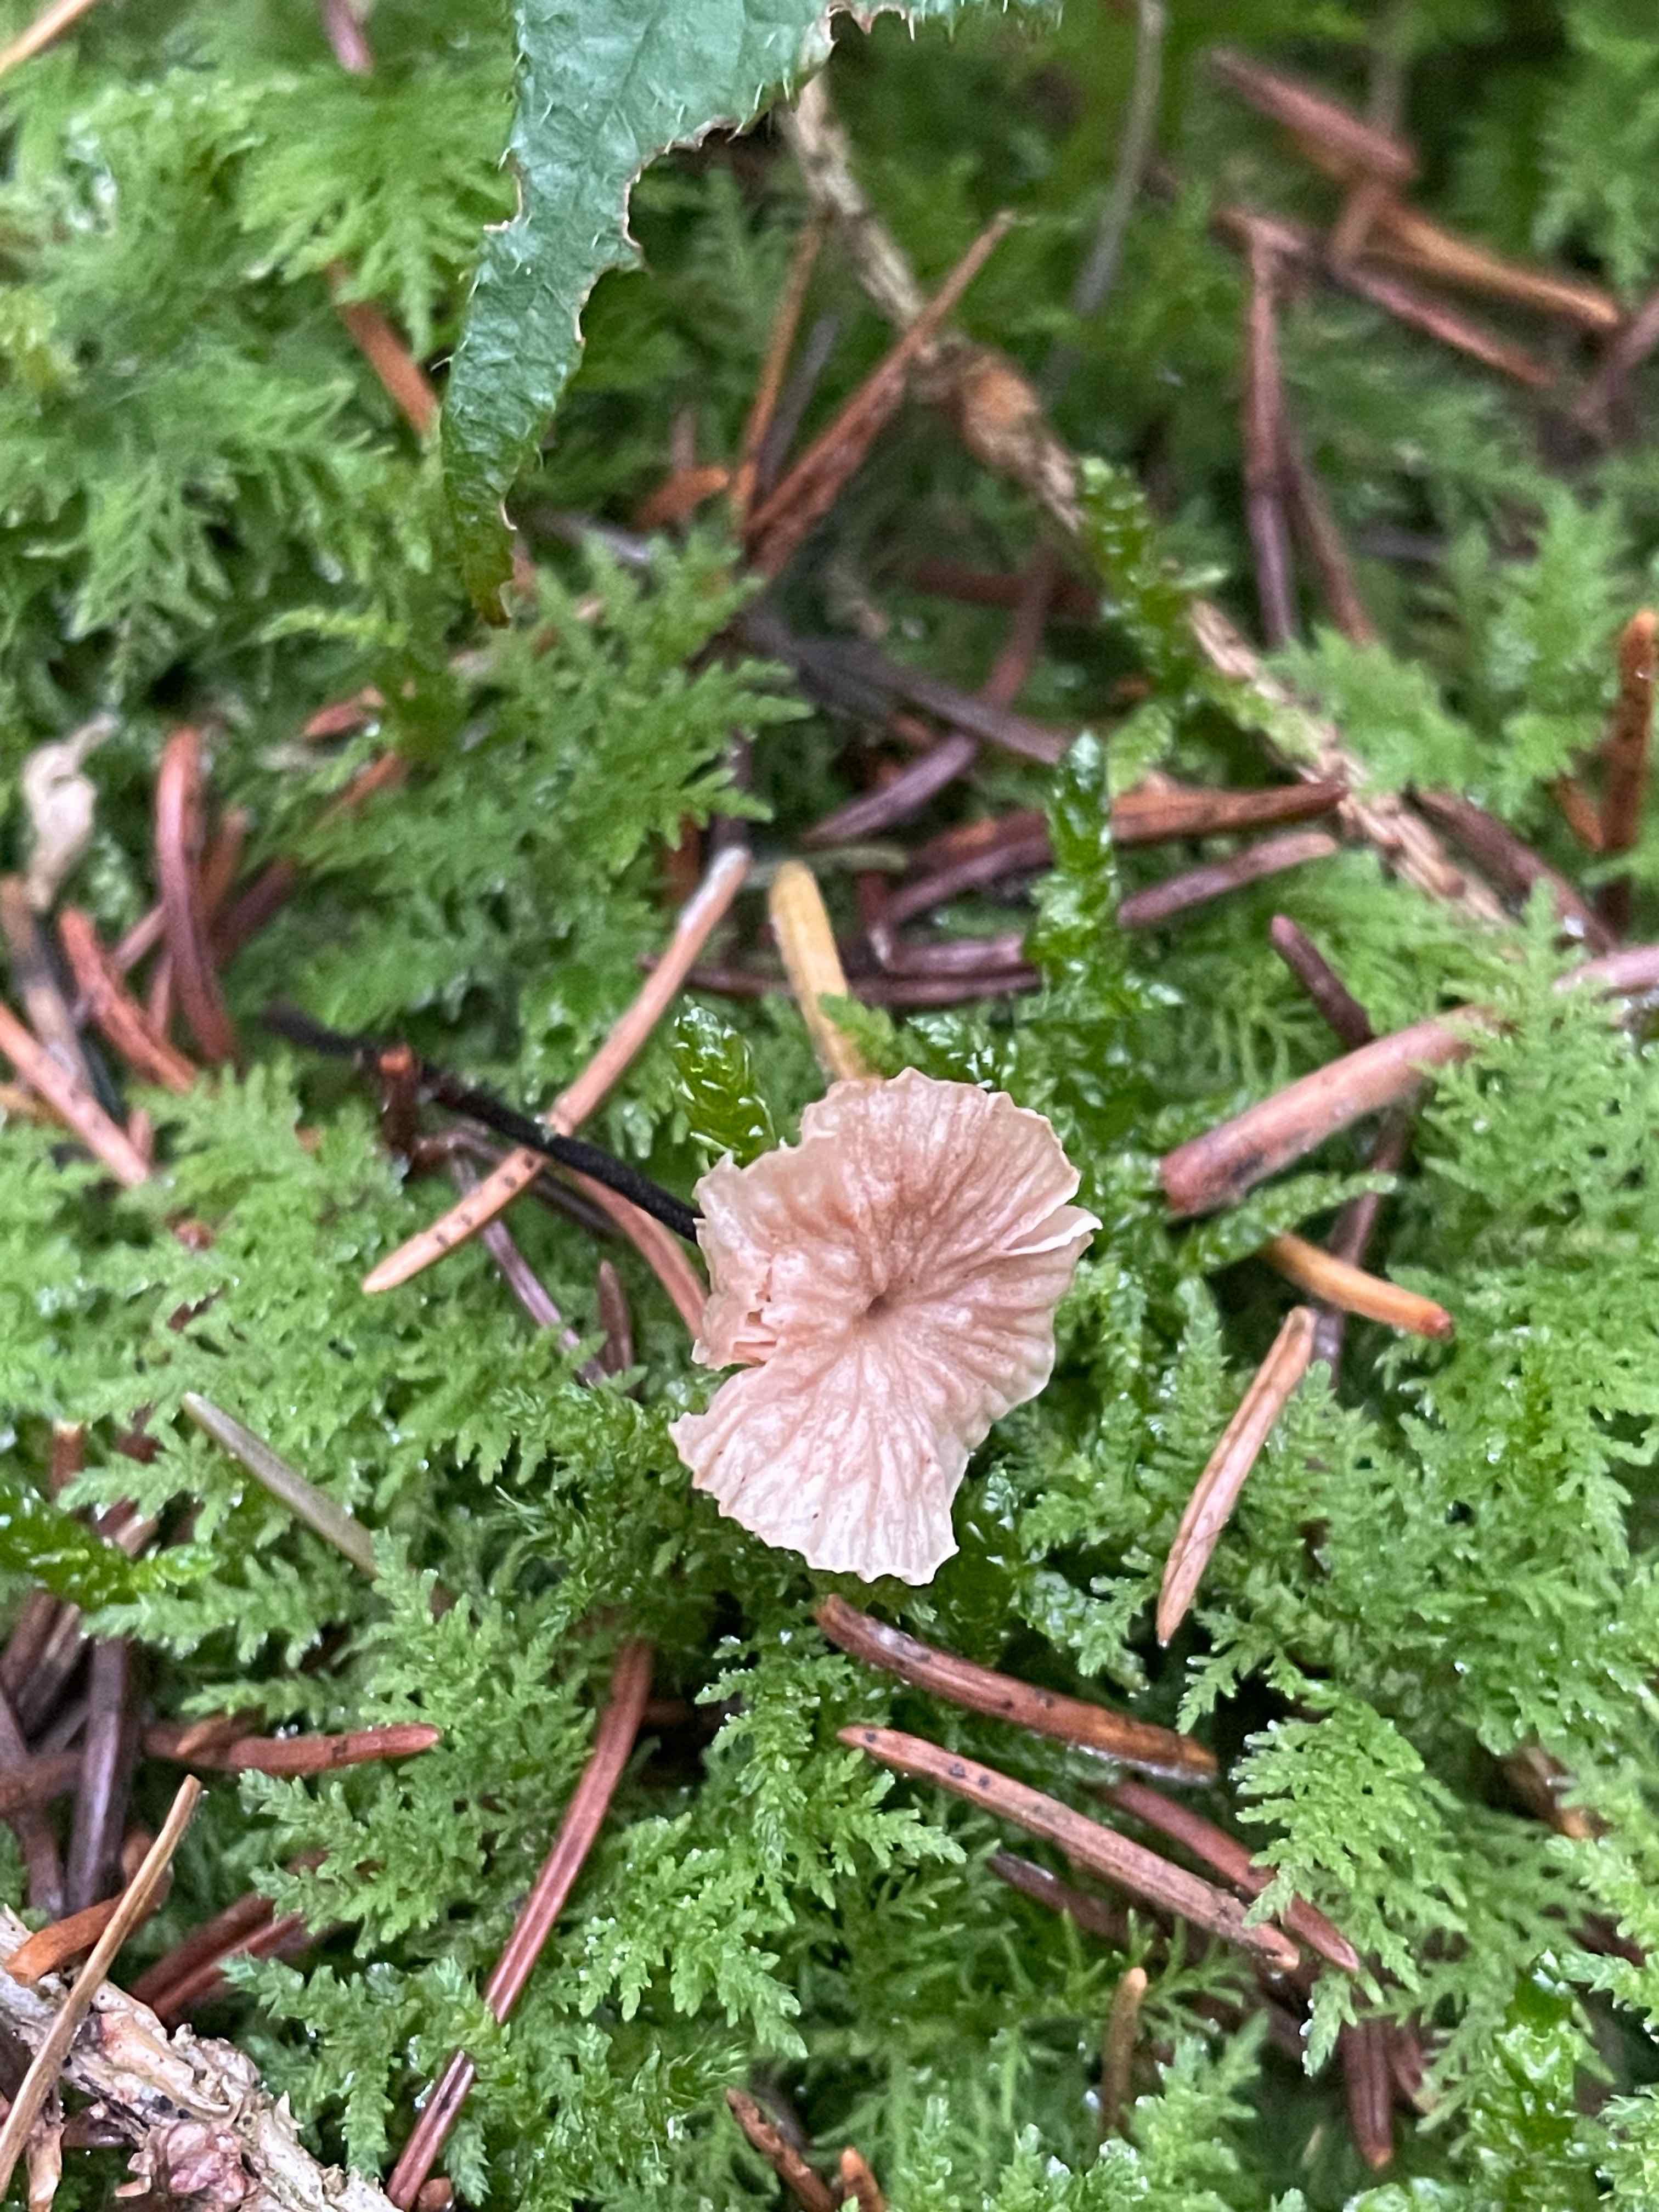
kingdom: Fungi
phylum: Basidiomycota
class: Agaricomycetes
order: Agaricales
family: Omphalotaceae
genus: Paragymnopus
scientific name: Paragymnopus perforans
